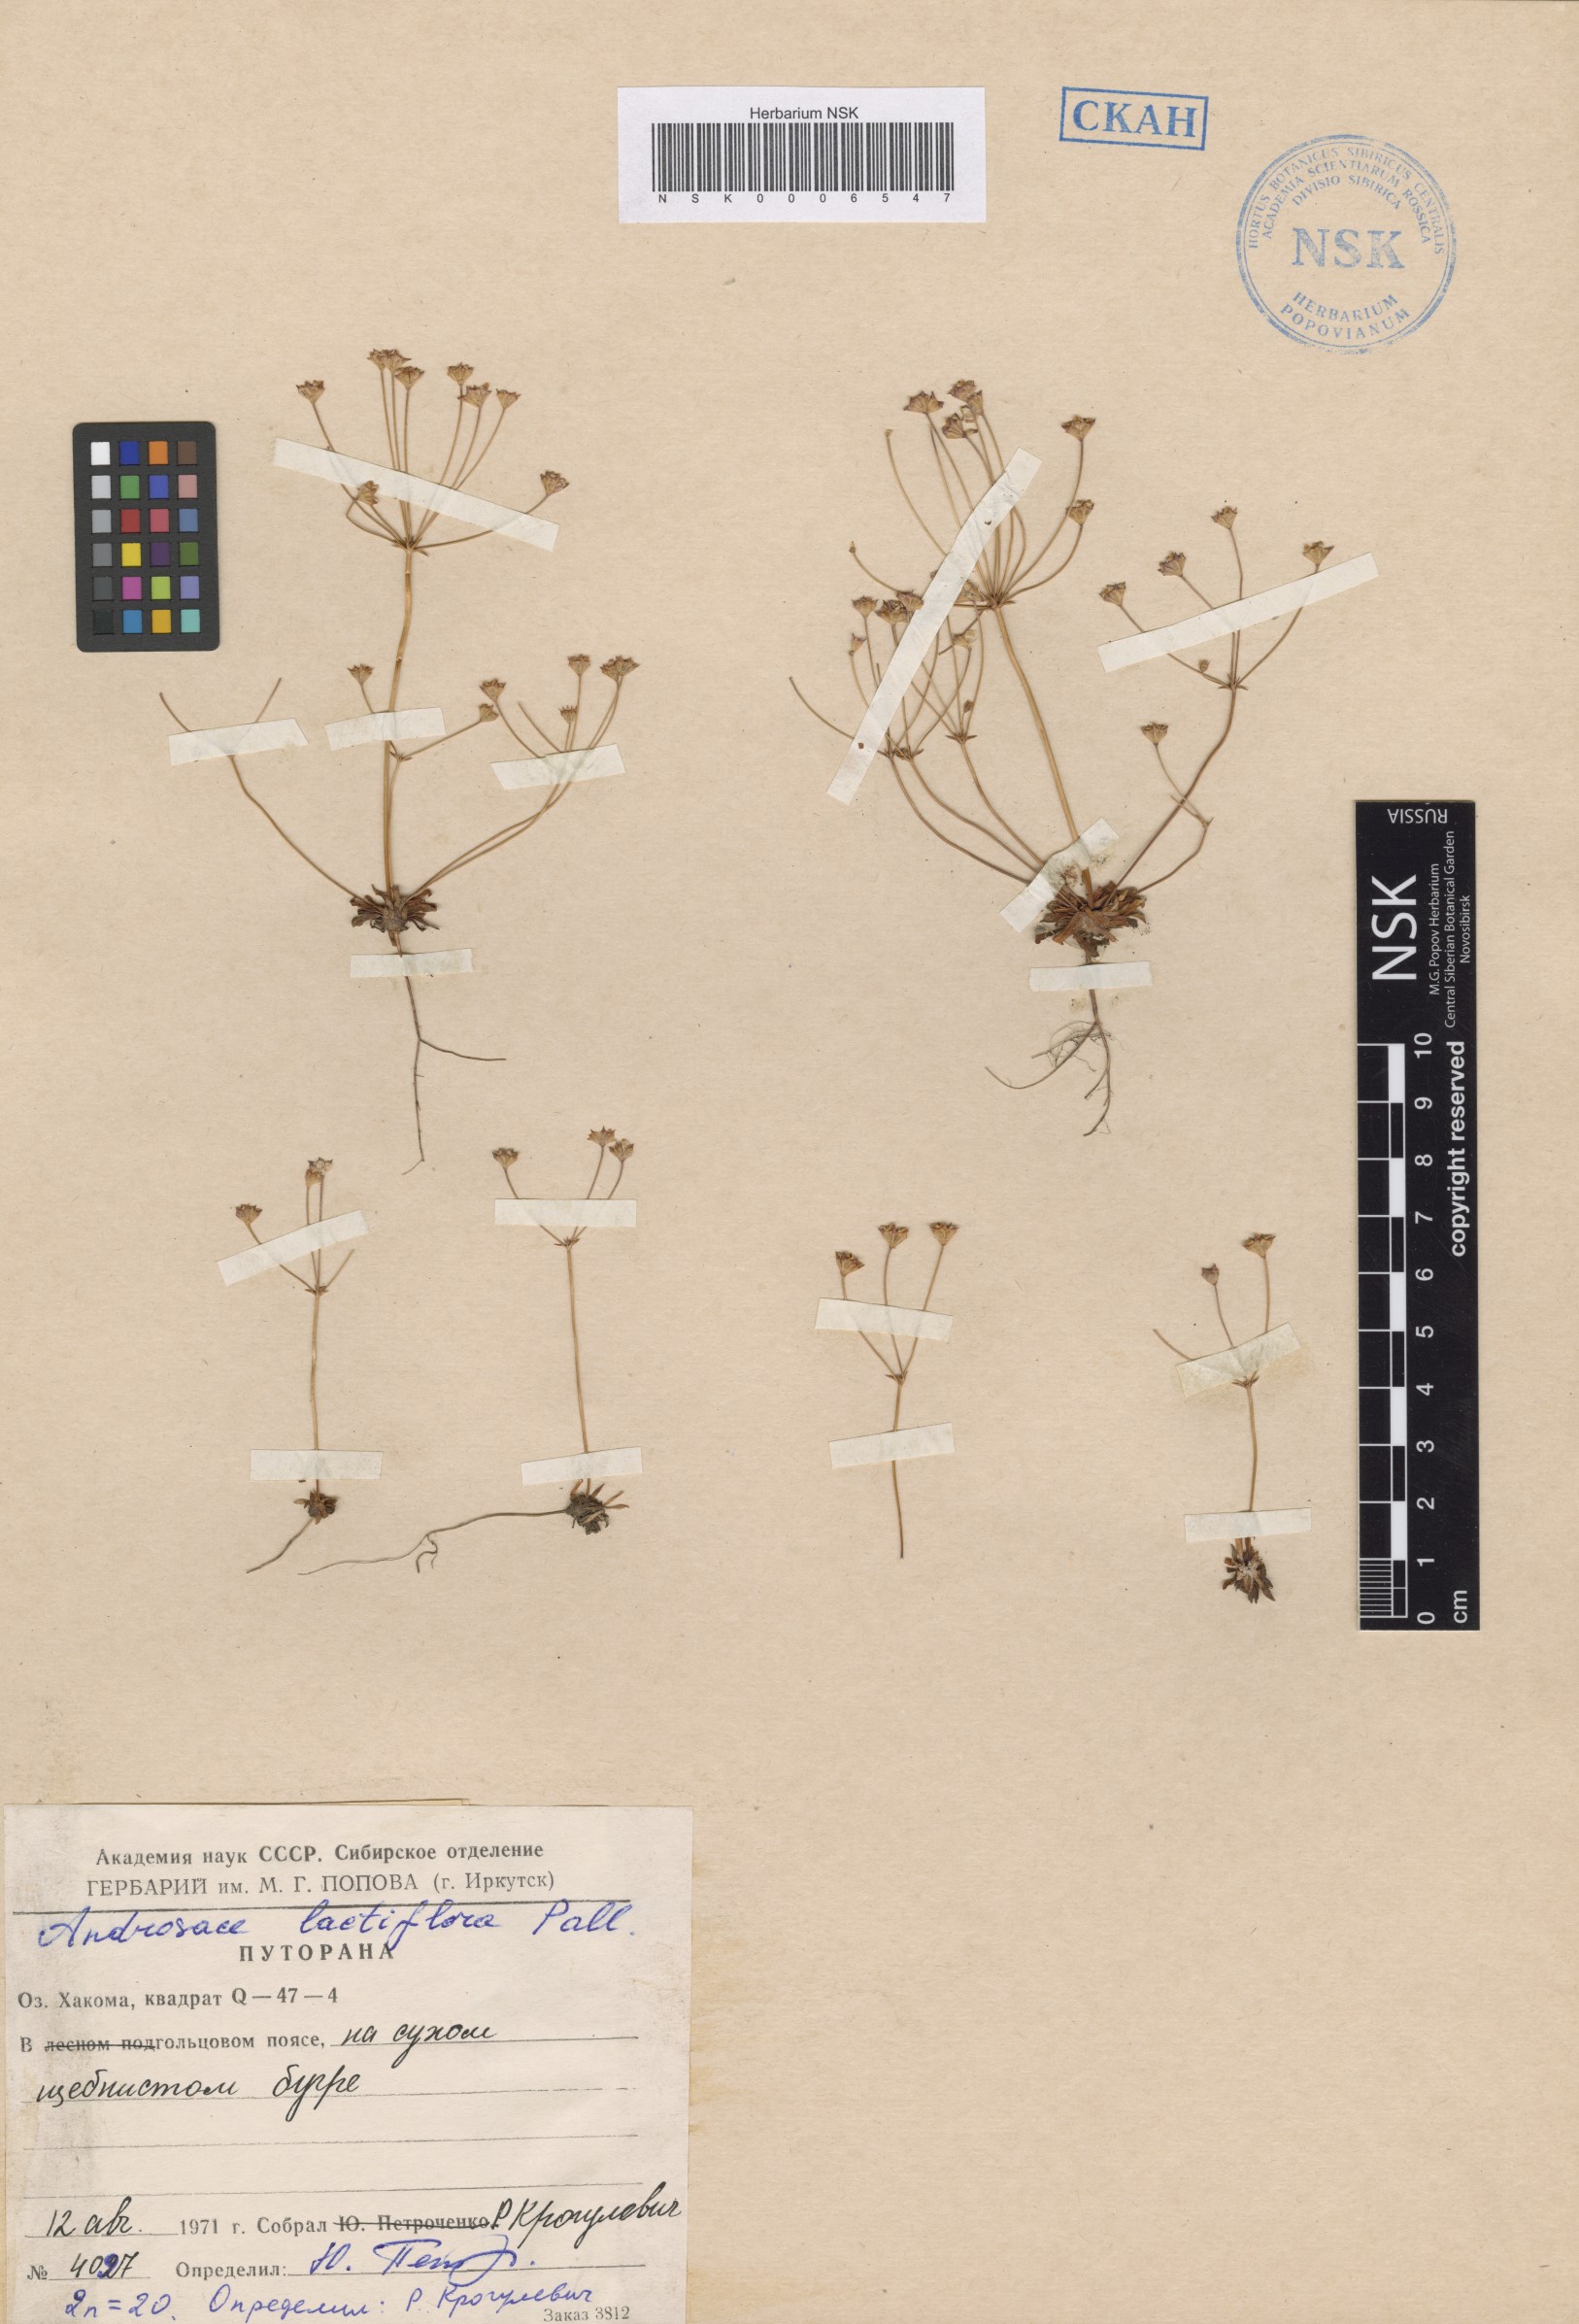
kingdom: Plantae
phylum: Tracheophyta
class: Magnoliopsida
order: Ericales
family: Primulaceae
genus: Androsace
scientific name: Androsace lactiflora
